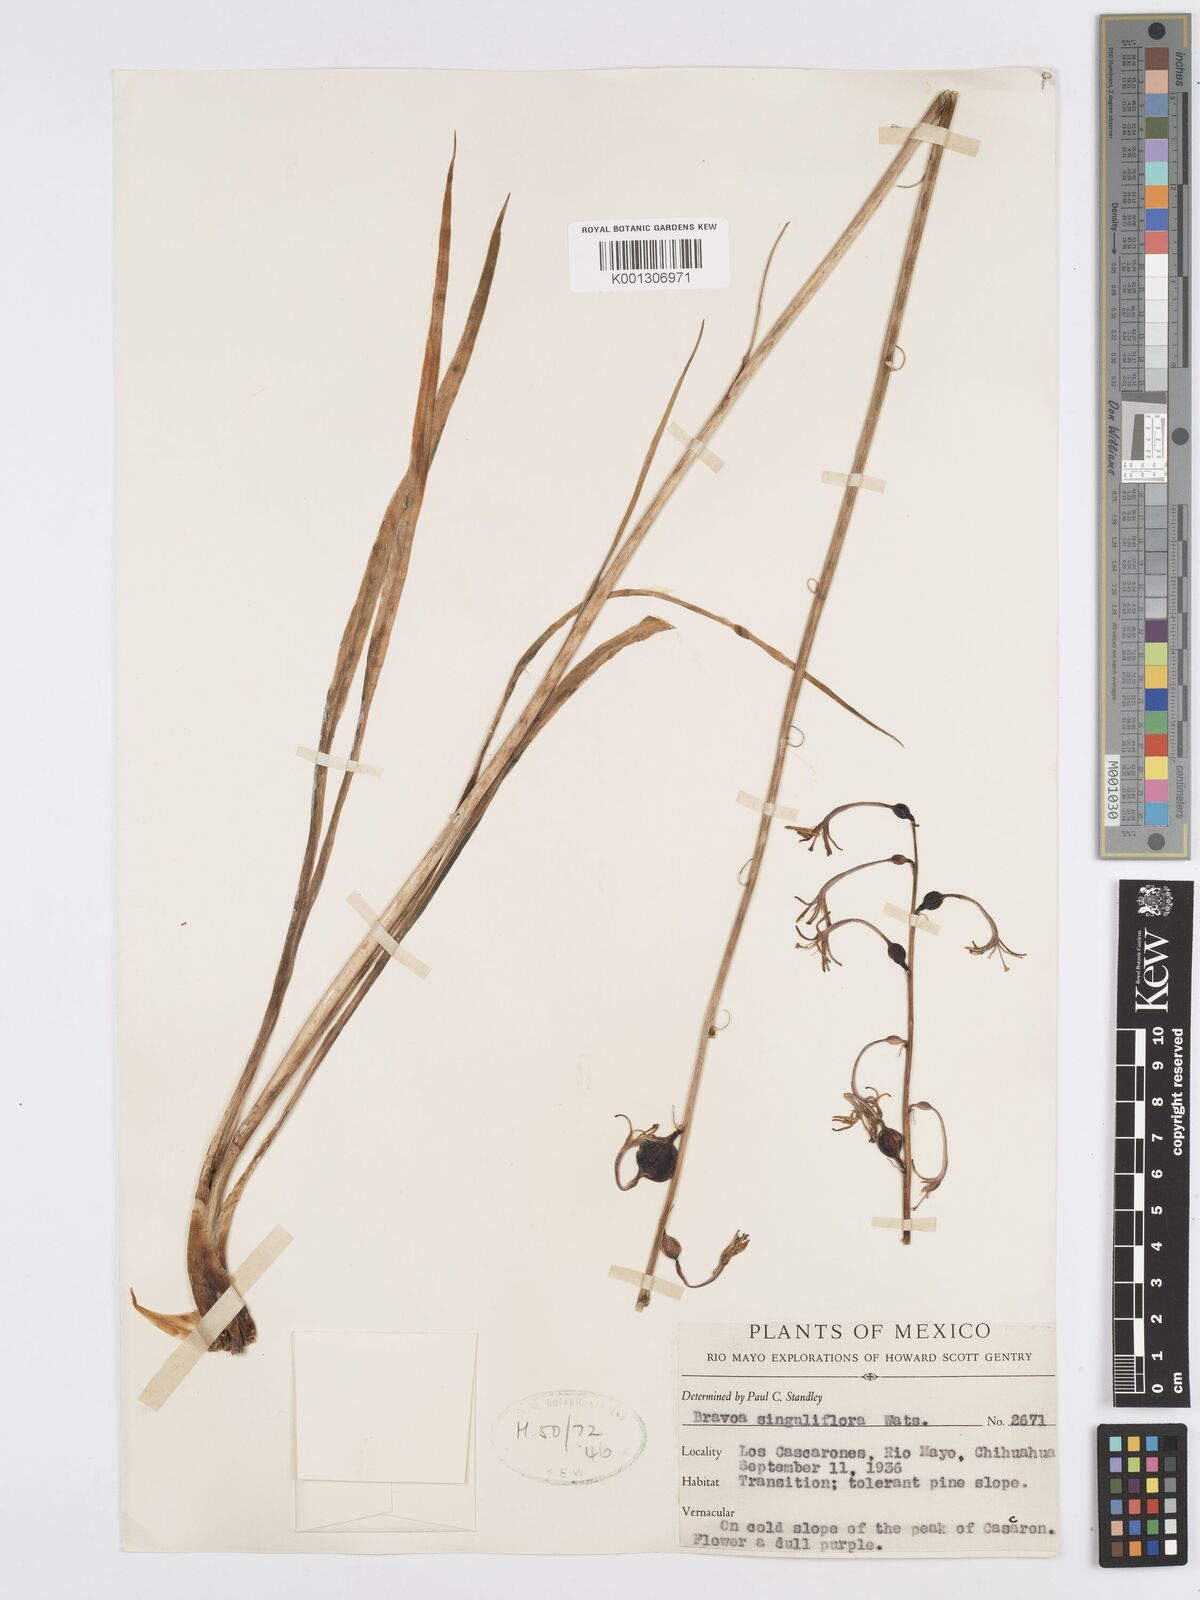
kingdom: Plantae
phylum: Tracheophyta
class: Liliopsida
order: Asparagales
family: Asparagaceae
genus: Agave
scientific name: Agave singuliflora
